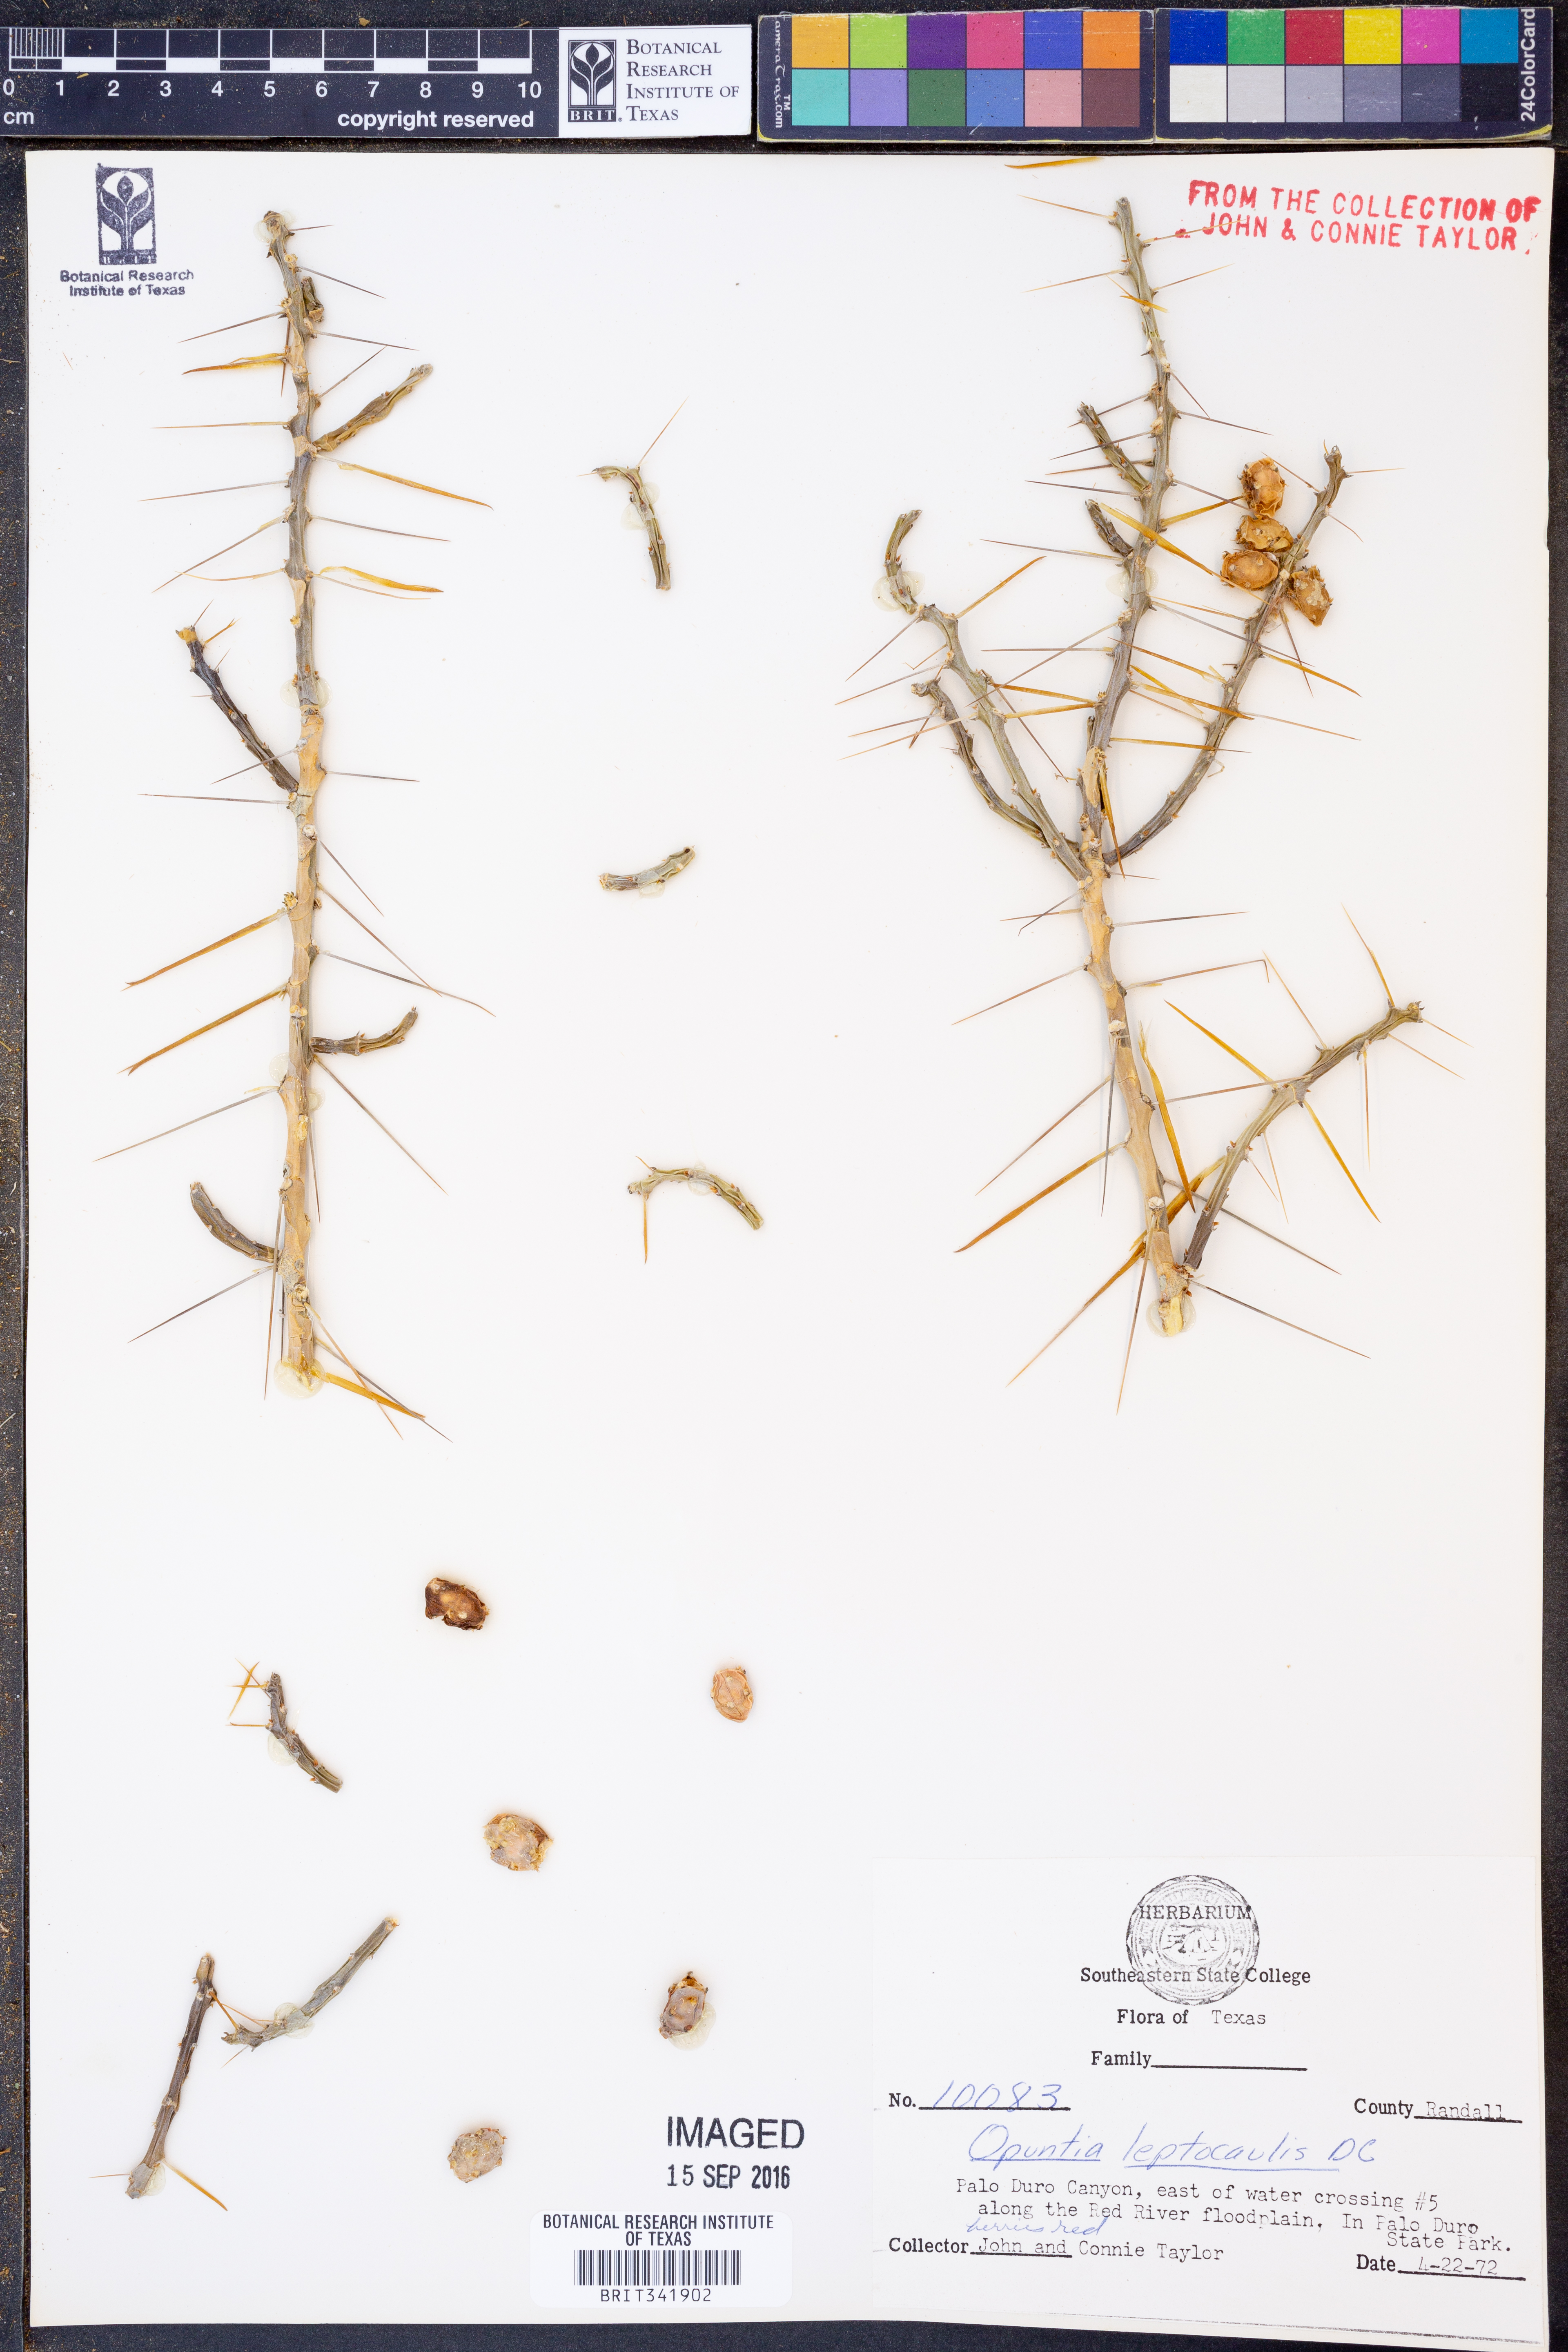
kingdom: Plantae
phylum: Tracheophyta
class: Magnoliopsida
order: Caryophyllales
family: Cactaceae
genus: Cylindropuntia
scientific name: Cylindropuntia leptocaulis
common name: Christmas cactus
